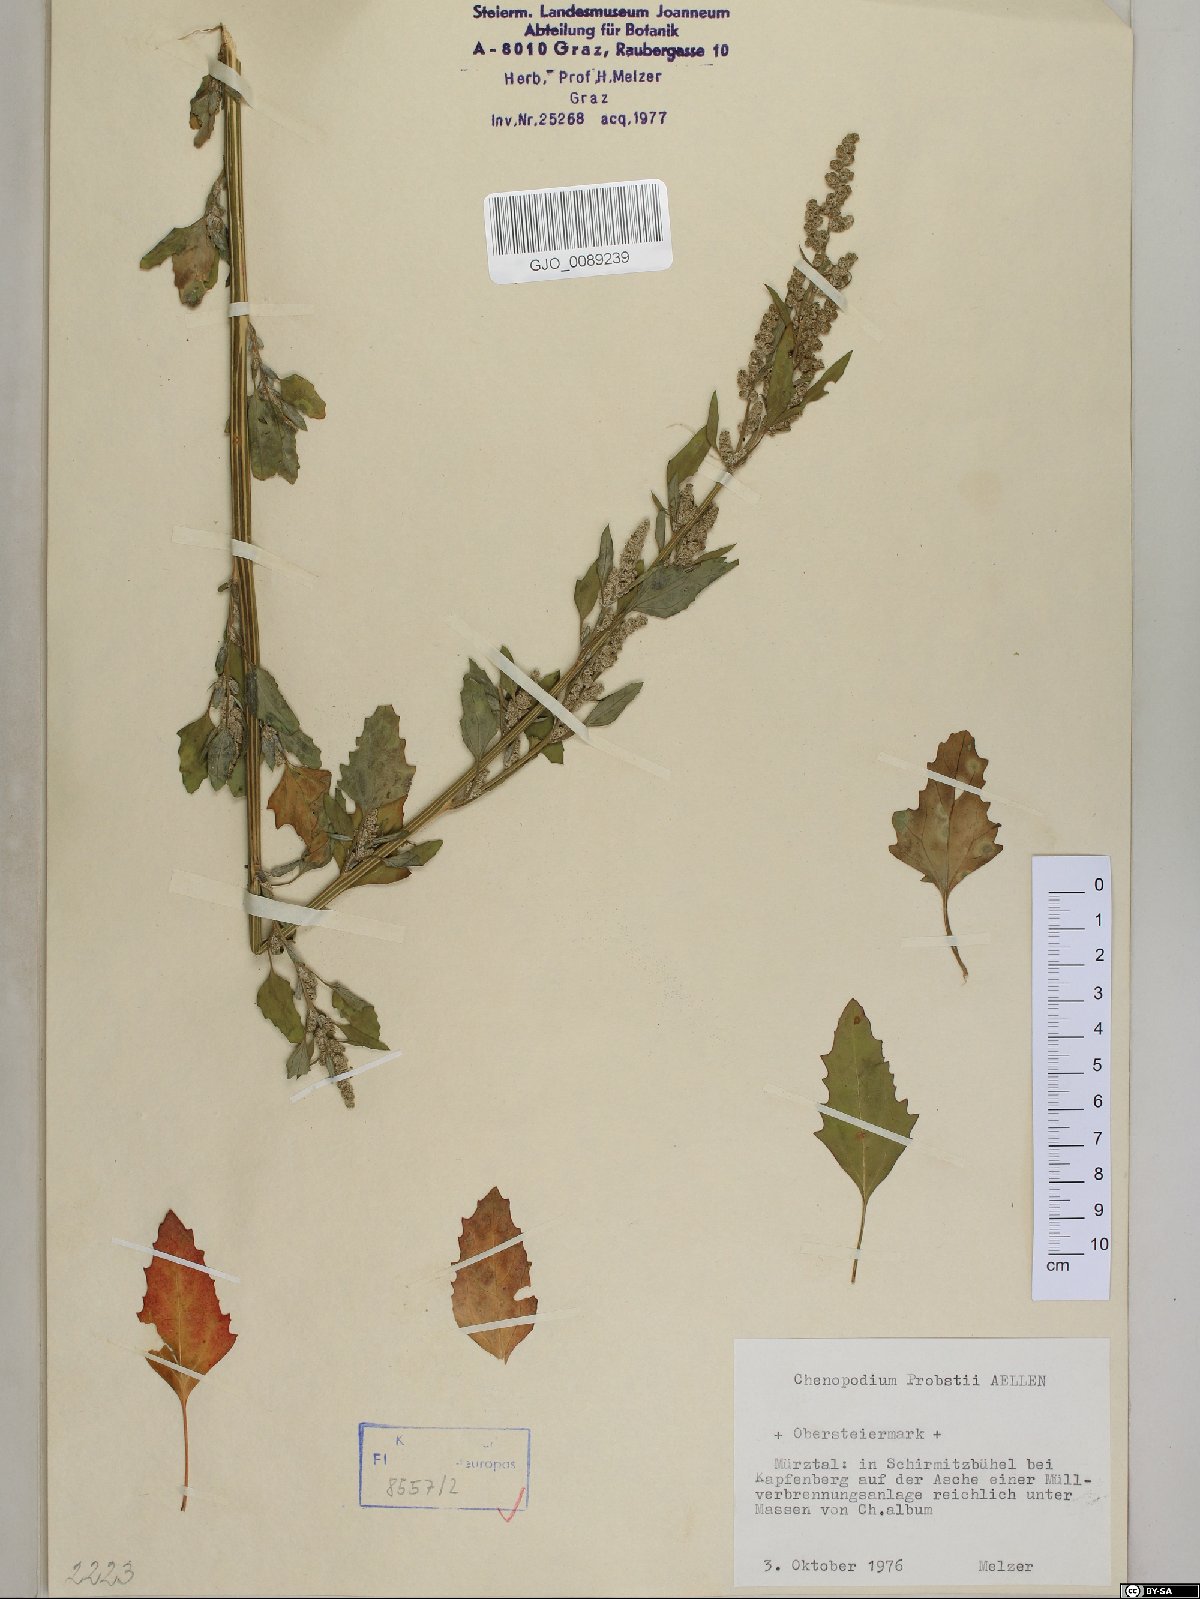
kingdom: Plantae
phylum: Tracheophyta
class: Magnoliopsida
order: Caryophyllales
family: Amaranthaceae
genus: Chenopodium
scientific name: Chenopodium probstii
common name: Probst's goosefoot
